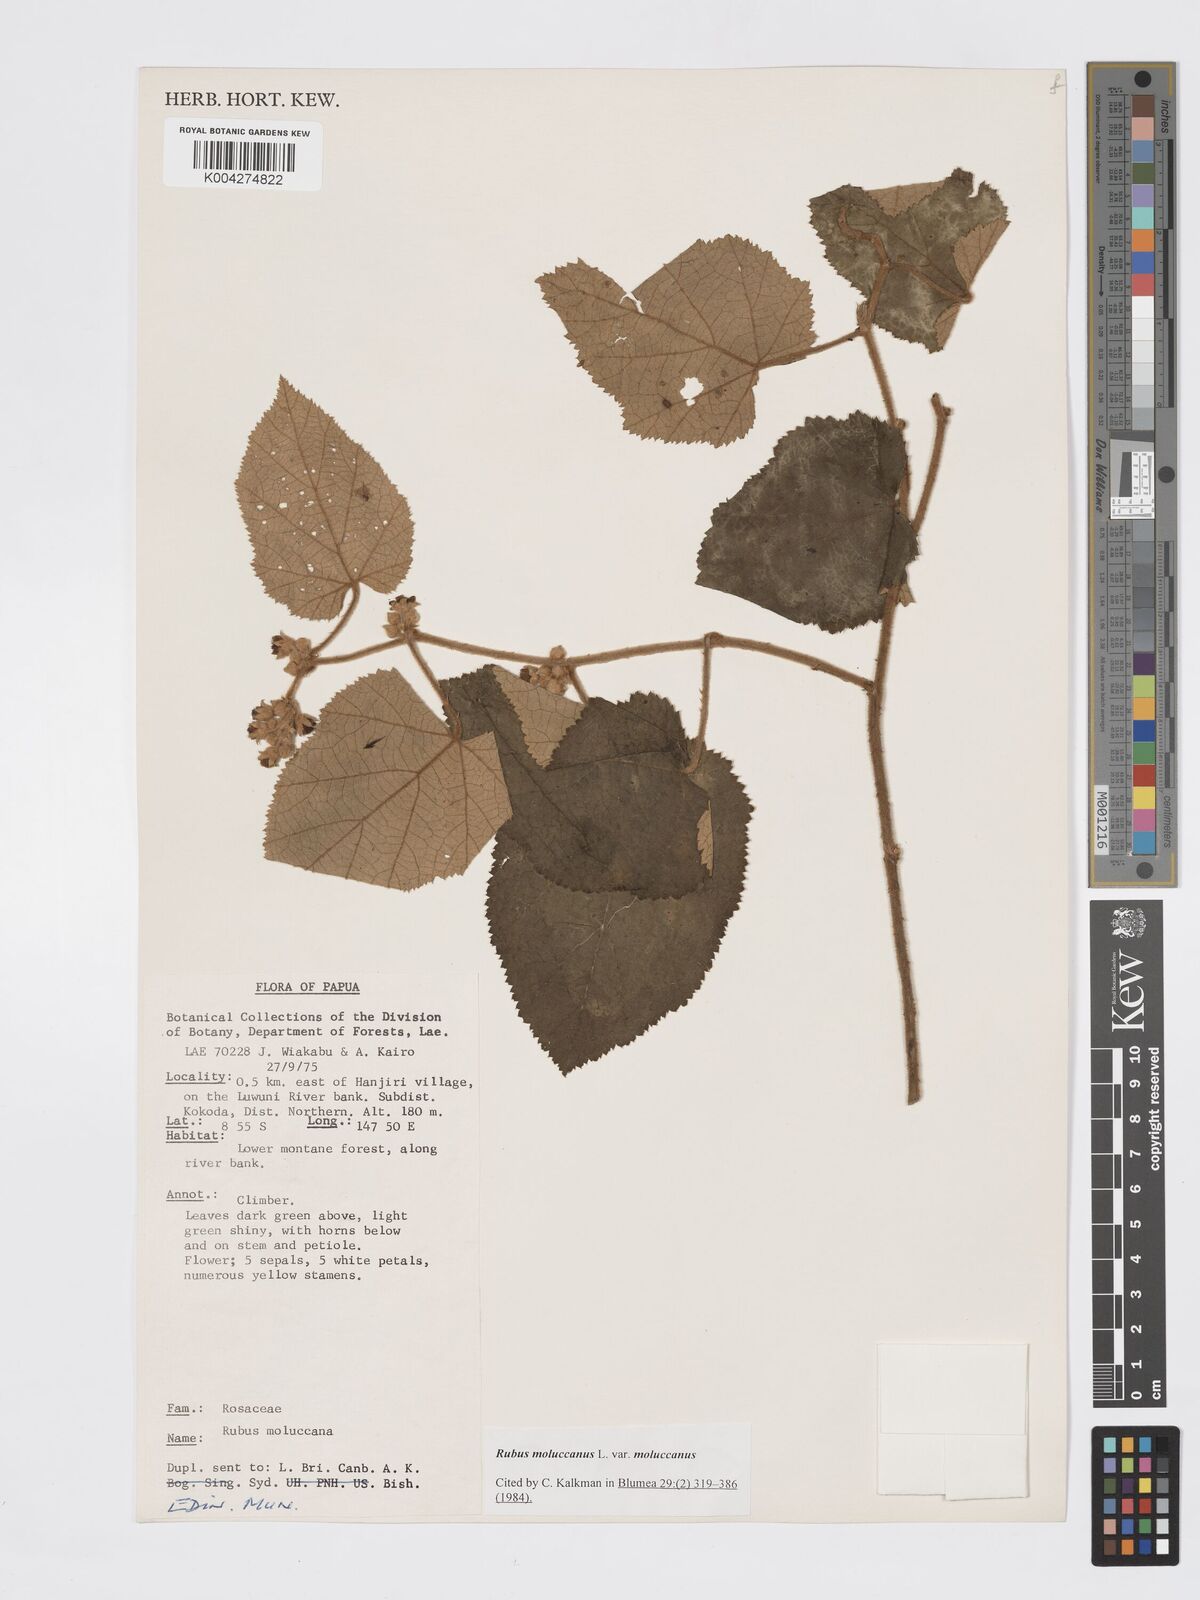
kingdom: Plantae
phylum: Tracheophyta
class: Magnoliopsida
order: Rosales
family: Rosaceae
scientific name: Rosaceae
